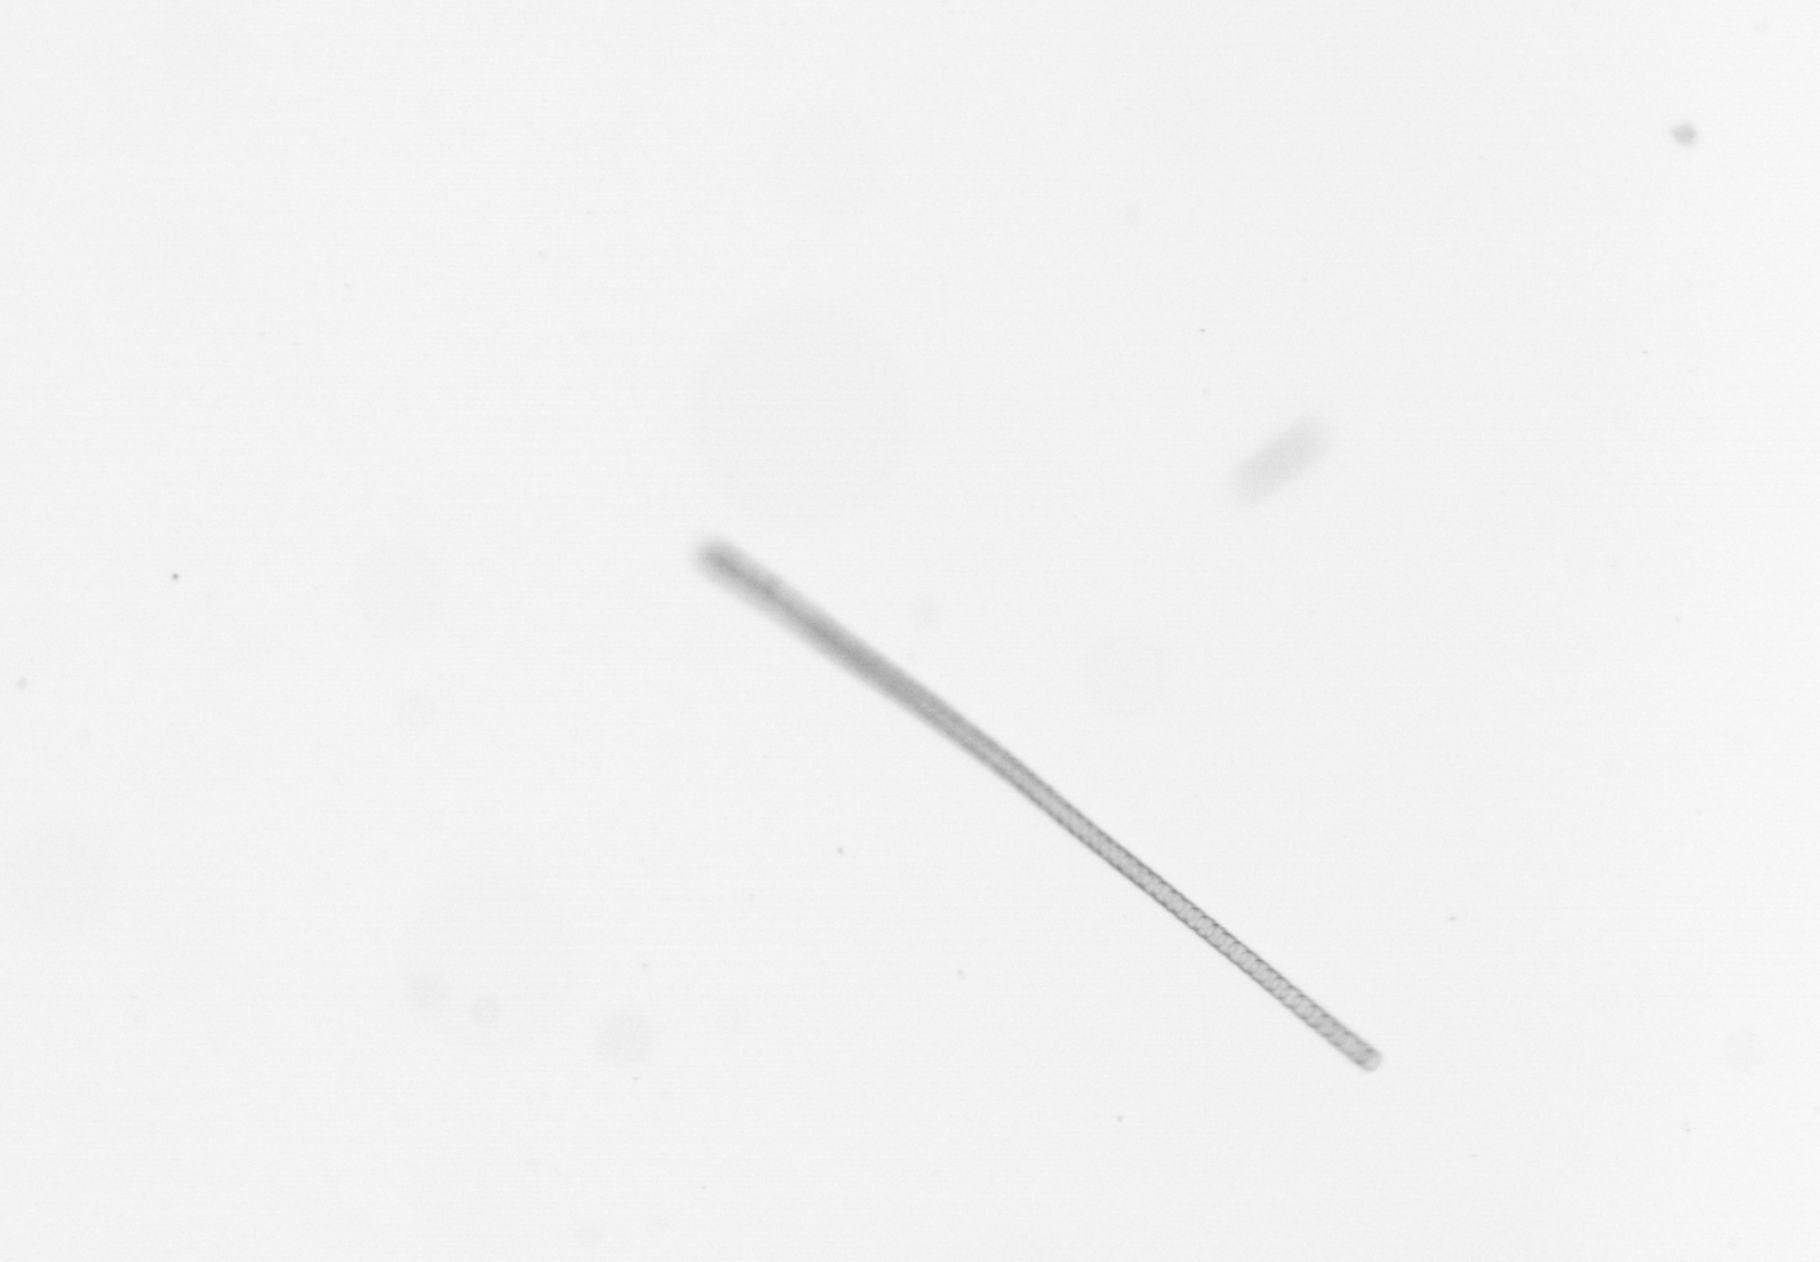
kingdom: Chromista
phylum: Ochrophyta
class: Bacillariophyceae
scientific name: Bacillariophyceae
